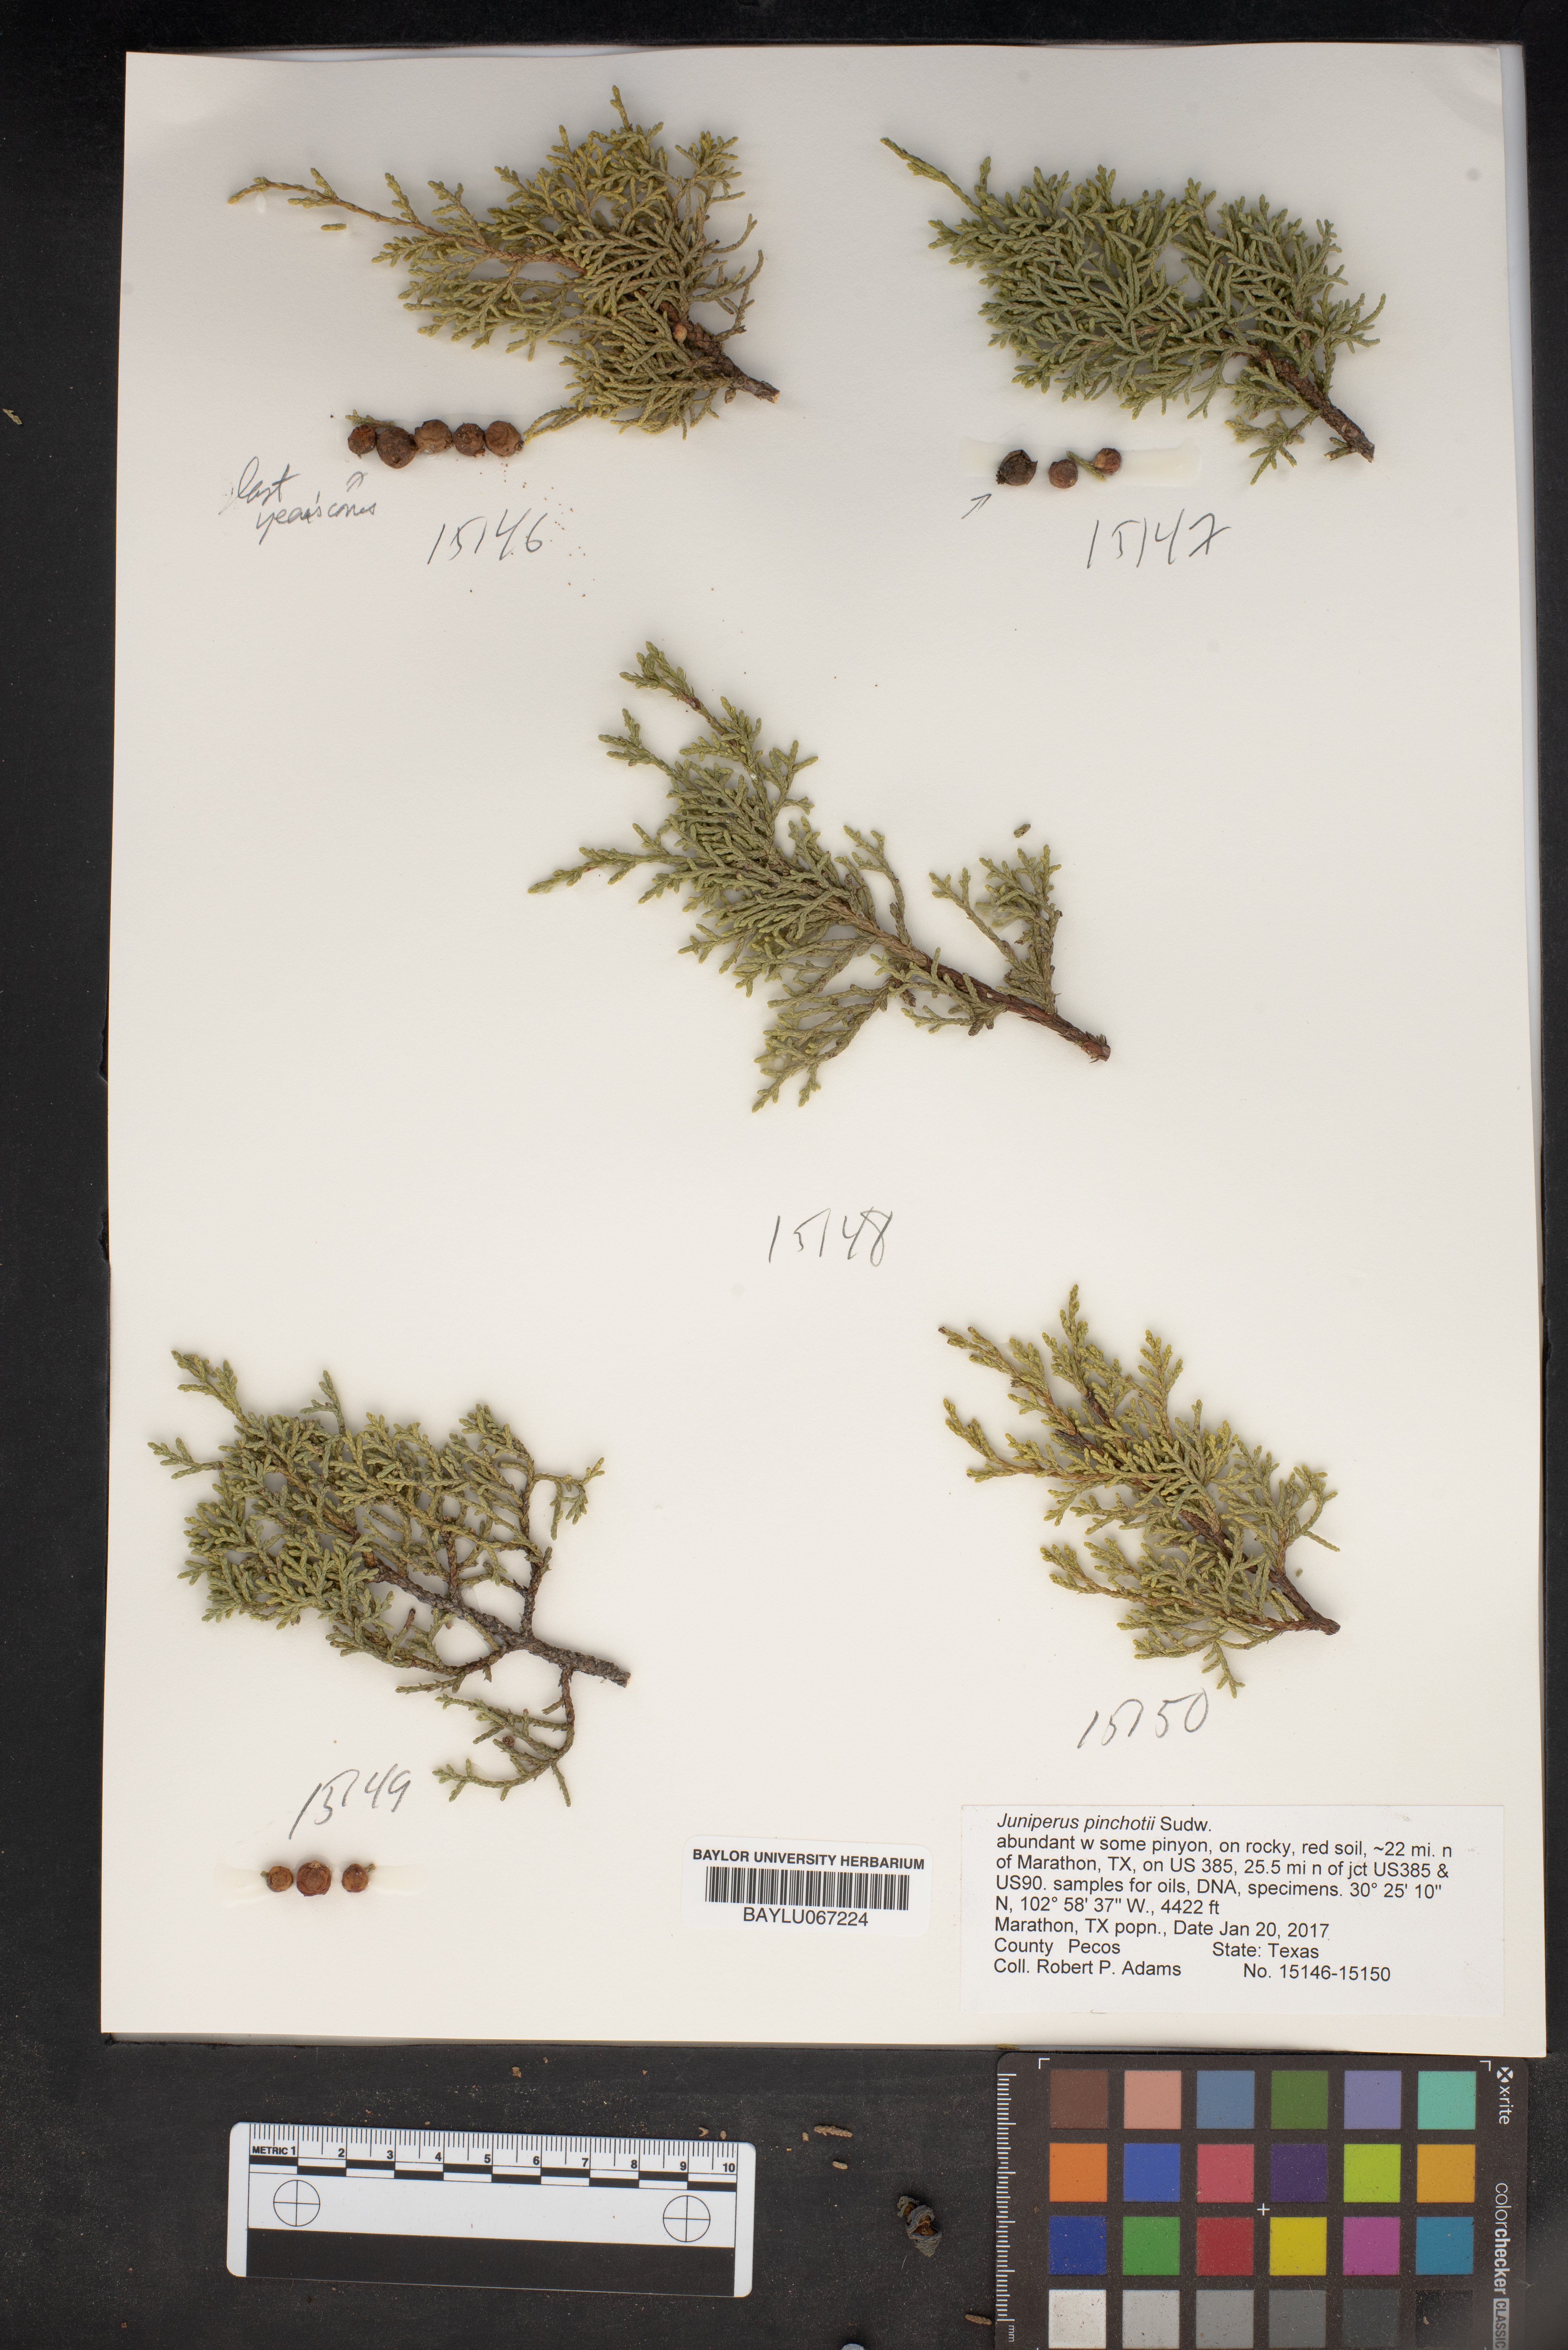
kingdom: Plantae
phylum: Tracheophyta
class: Pinopsida
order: Pinales
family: Cupressaceae
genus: Juniperus
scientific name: Juniperus pinchotii
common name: Pinchot juniper
